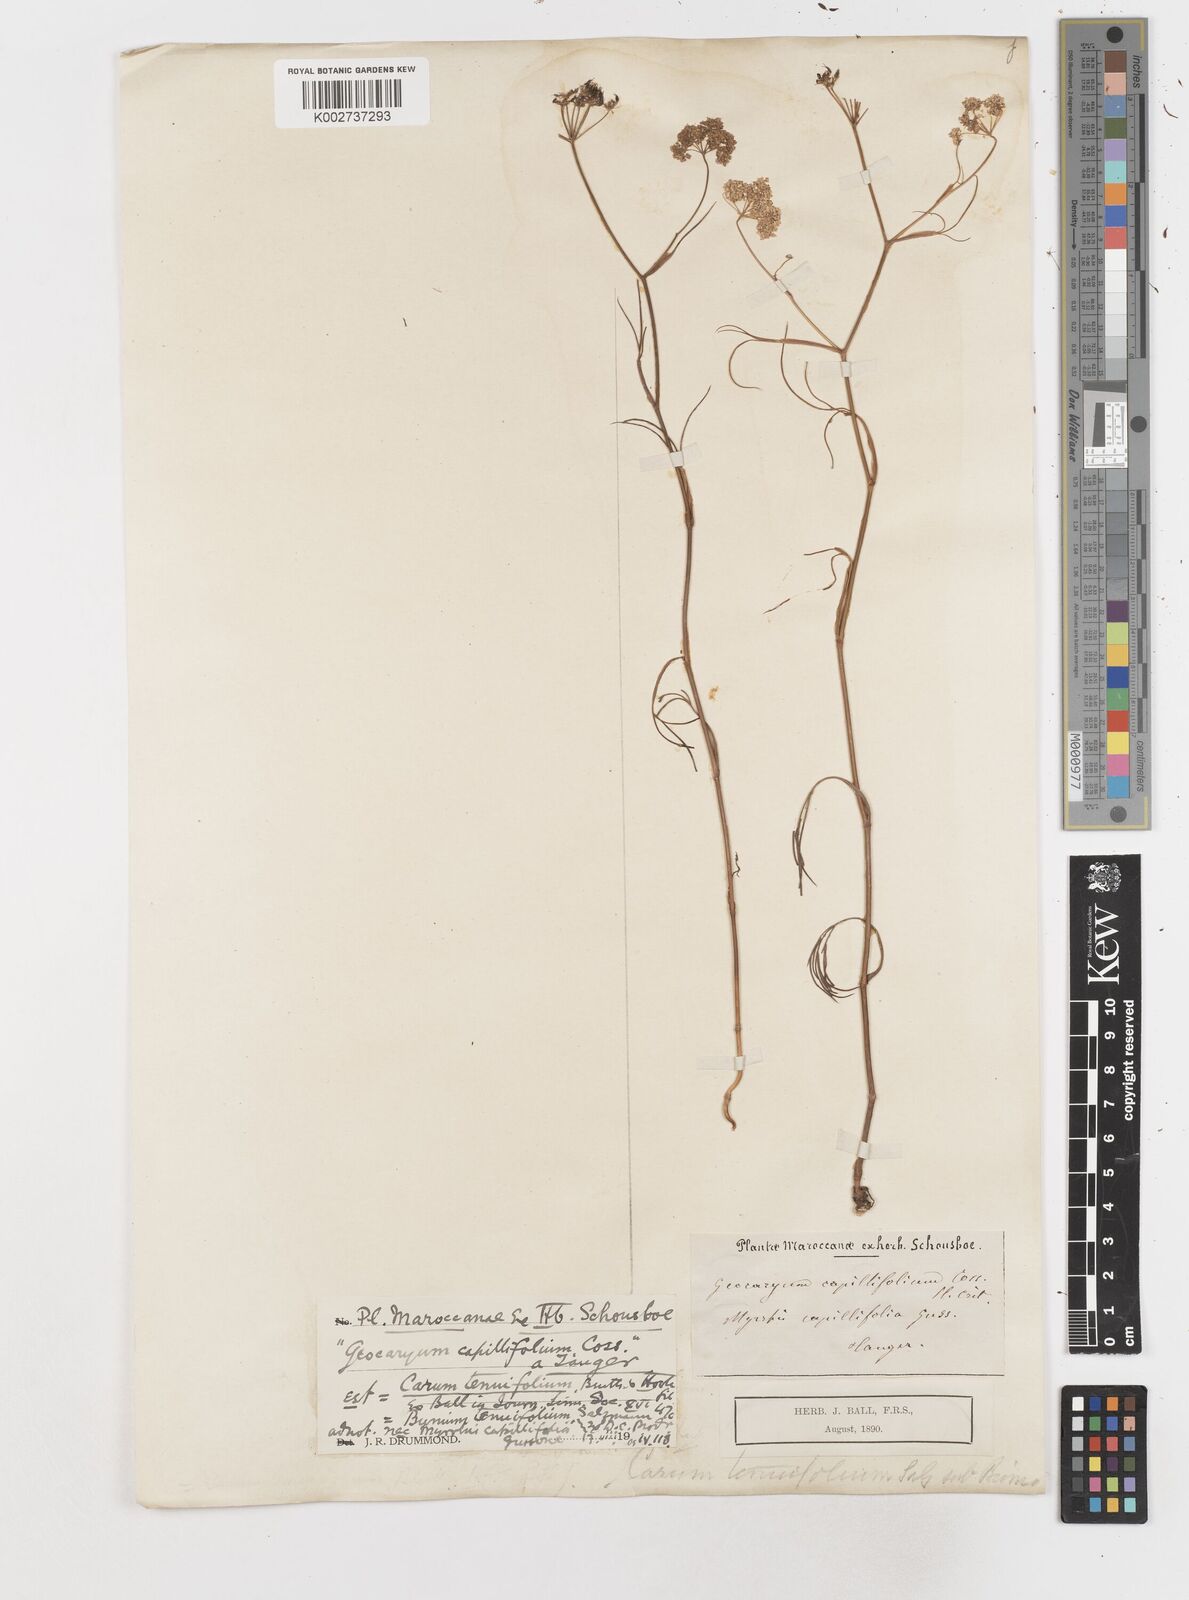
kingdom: Plantae
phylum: Tracheophyta
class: Magnoliopsida
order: Apiales
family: Apiaceae
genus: Geocaryum
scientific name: Geocaryum capillifolium
